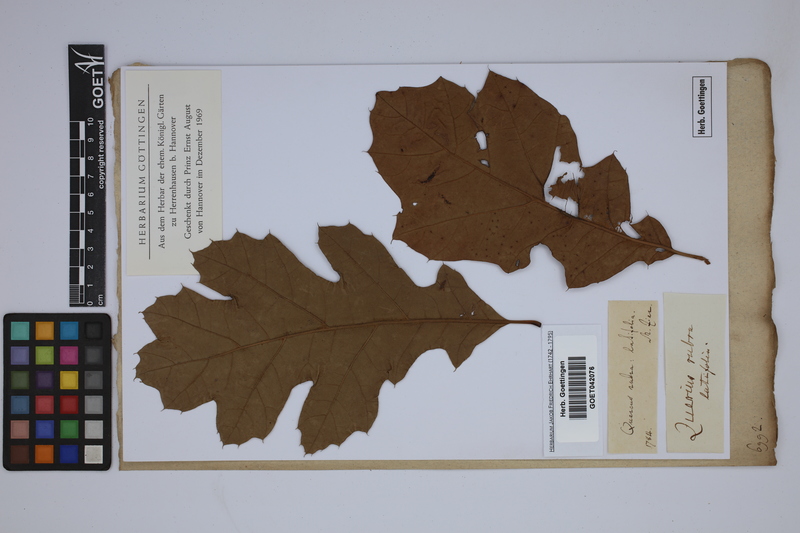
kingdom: Plantae
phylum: Tracheophyta
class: Magnoliopsida
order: Fagales
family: Fagaceae
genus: Quercus
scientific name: Quercus rubra
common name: Red oak
